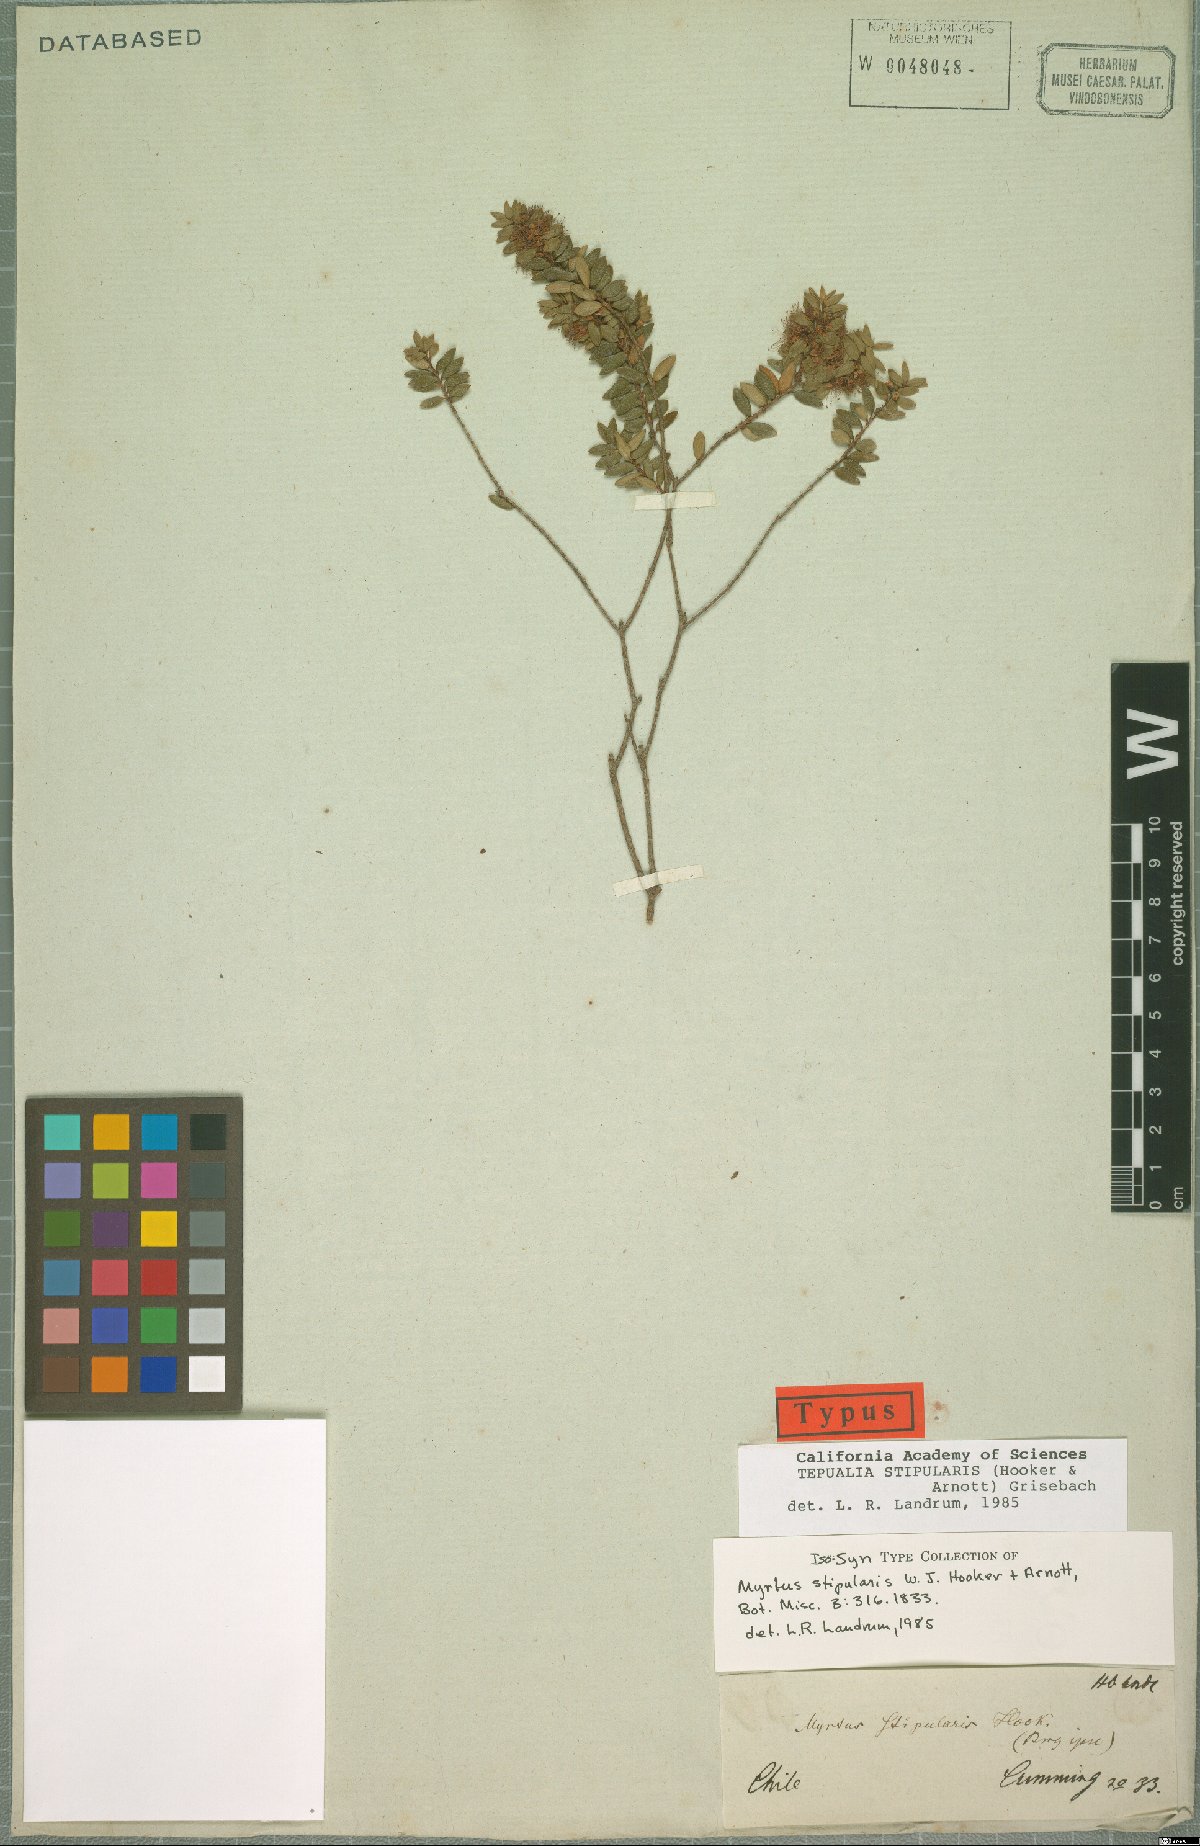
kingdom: Plantae
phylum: Tracheophyta
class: Magnoliopsida
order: Myrtales
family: Myrtaceae
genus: Tepualia
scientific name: Tepualia stipularis
